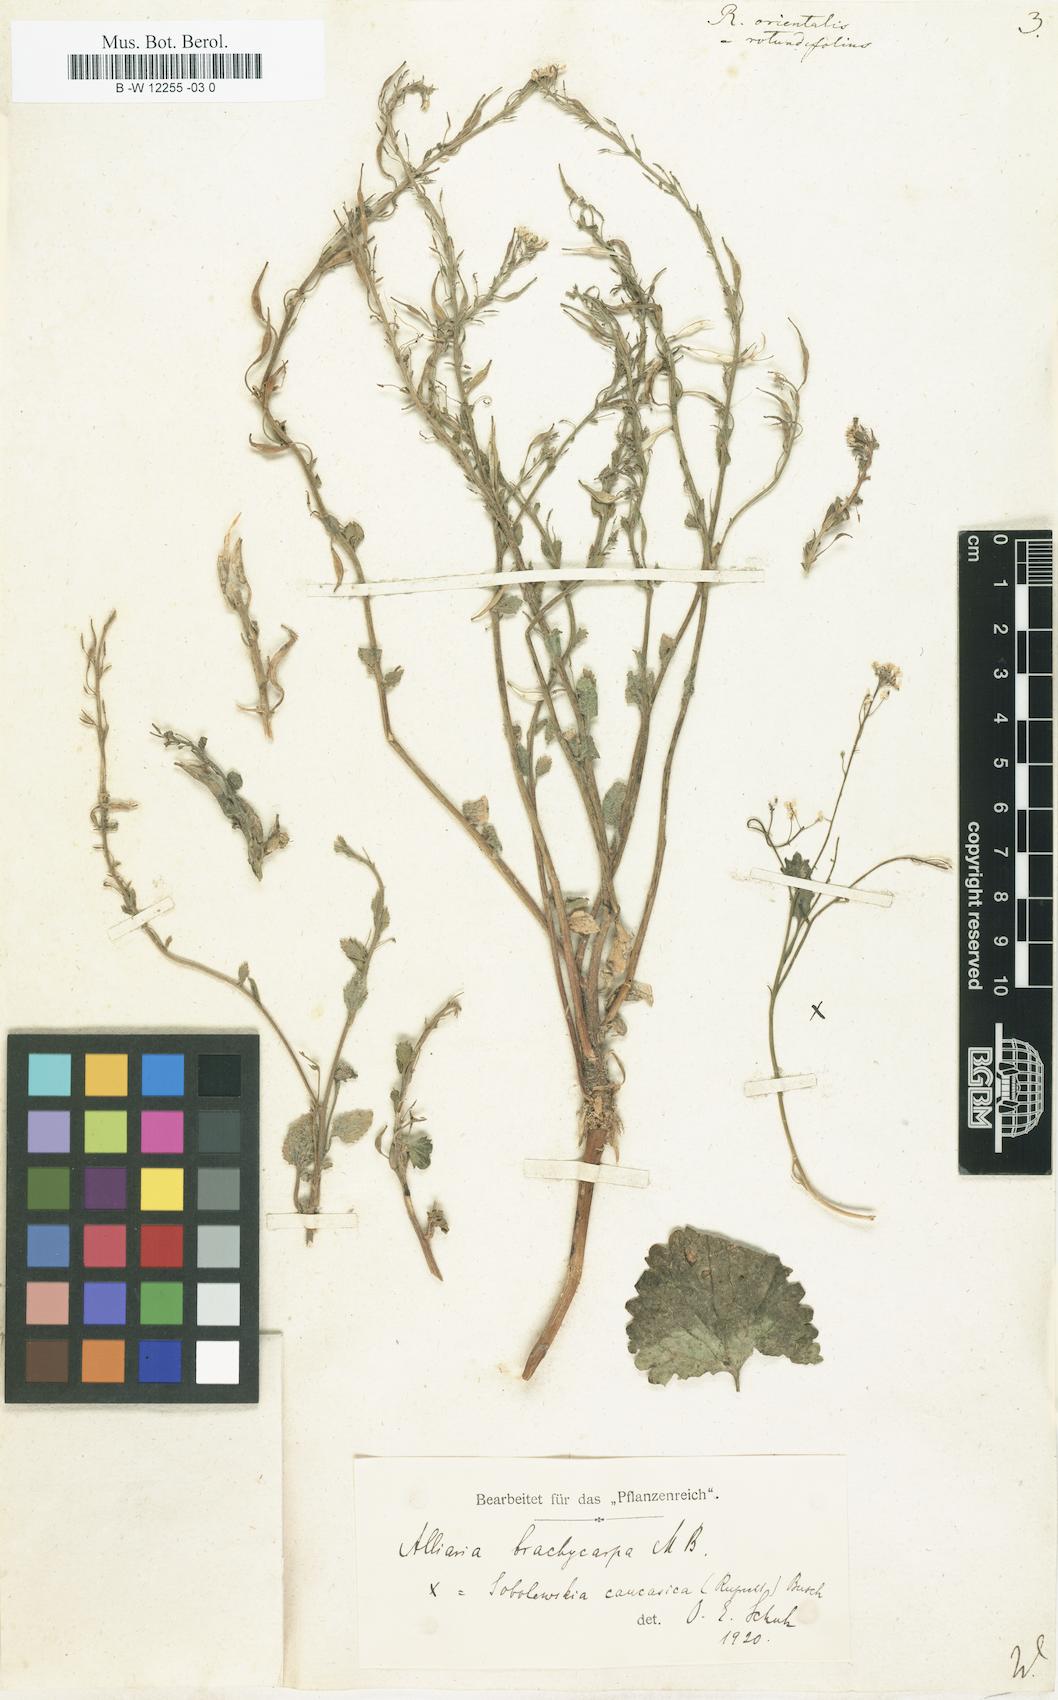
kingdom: Plantae
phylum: Tracheophyta
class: Magnoliopsida
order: Brassicales
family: Brassicaceae
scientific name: Brassicaceae
